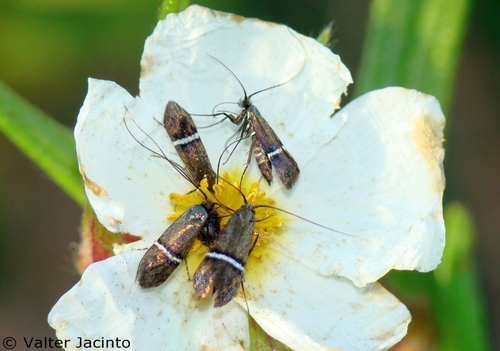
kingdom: Animalia
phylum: Arthropoda
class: Insecta
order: Lepidoptera
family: Adelidae
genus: Adela
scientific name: Adela collicolella
